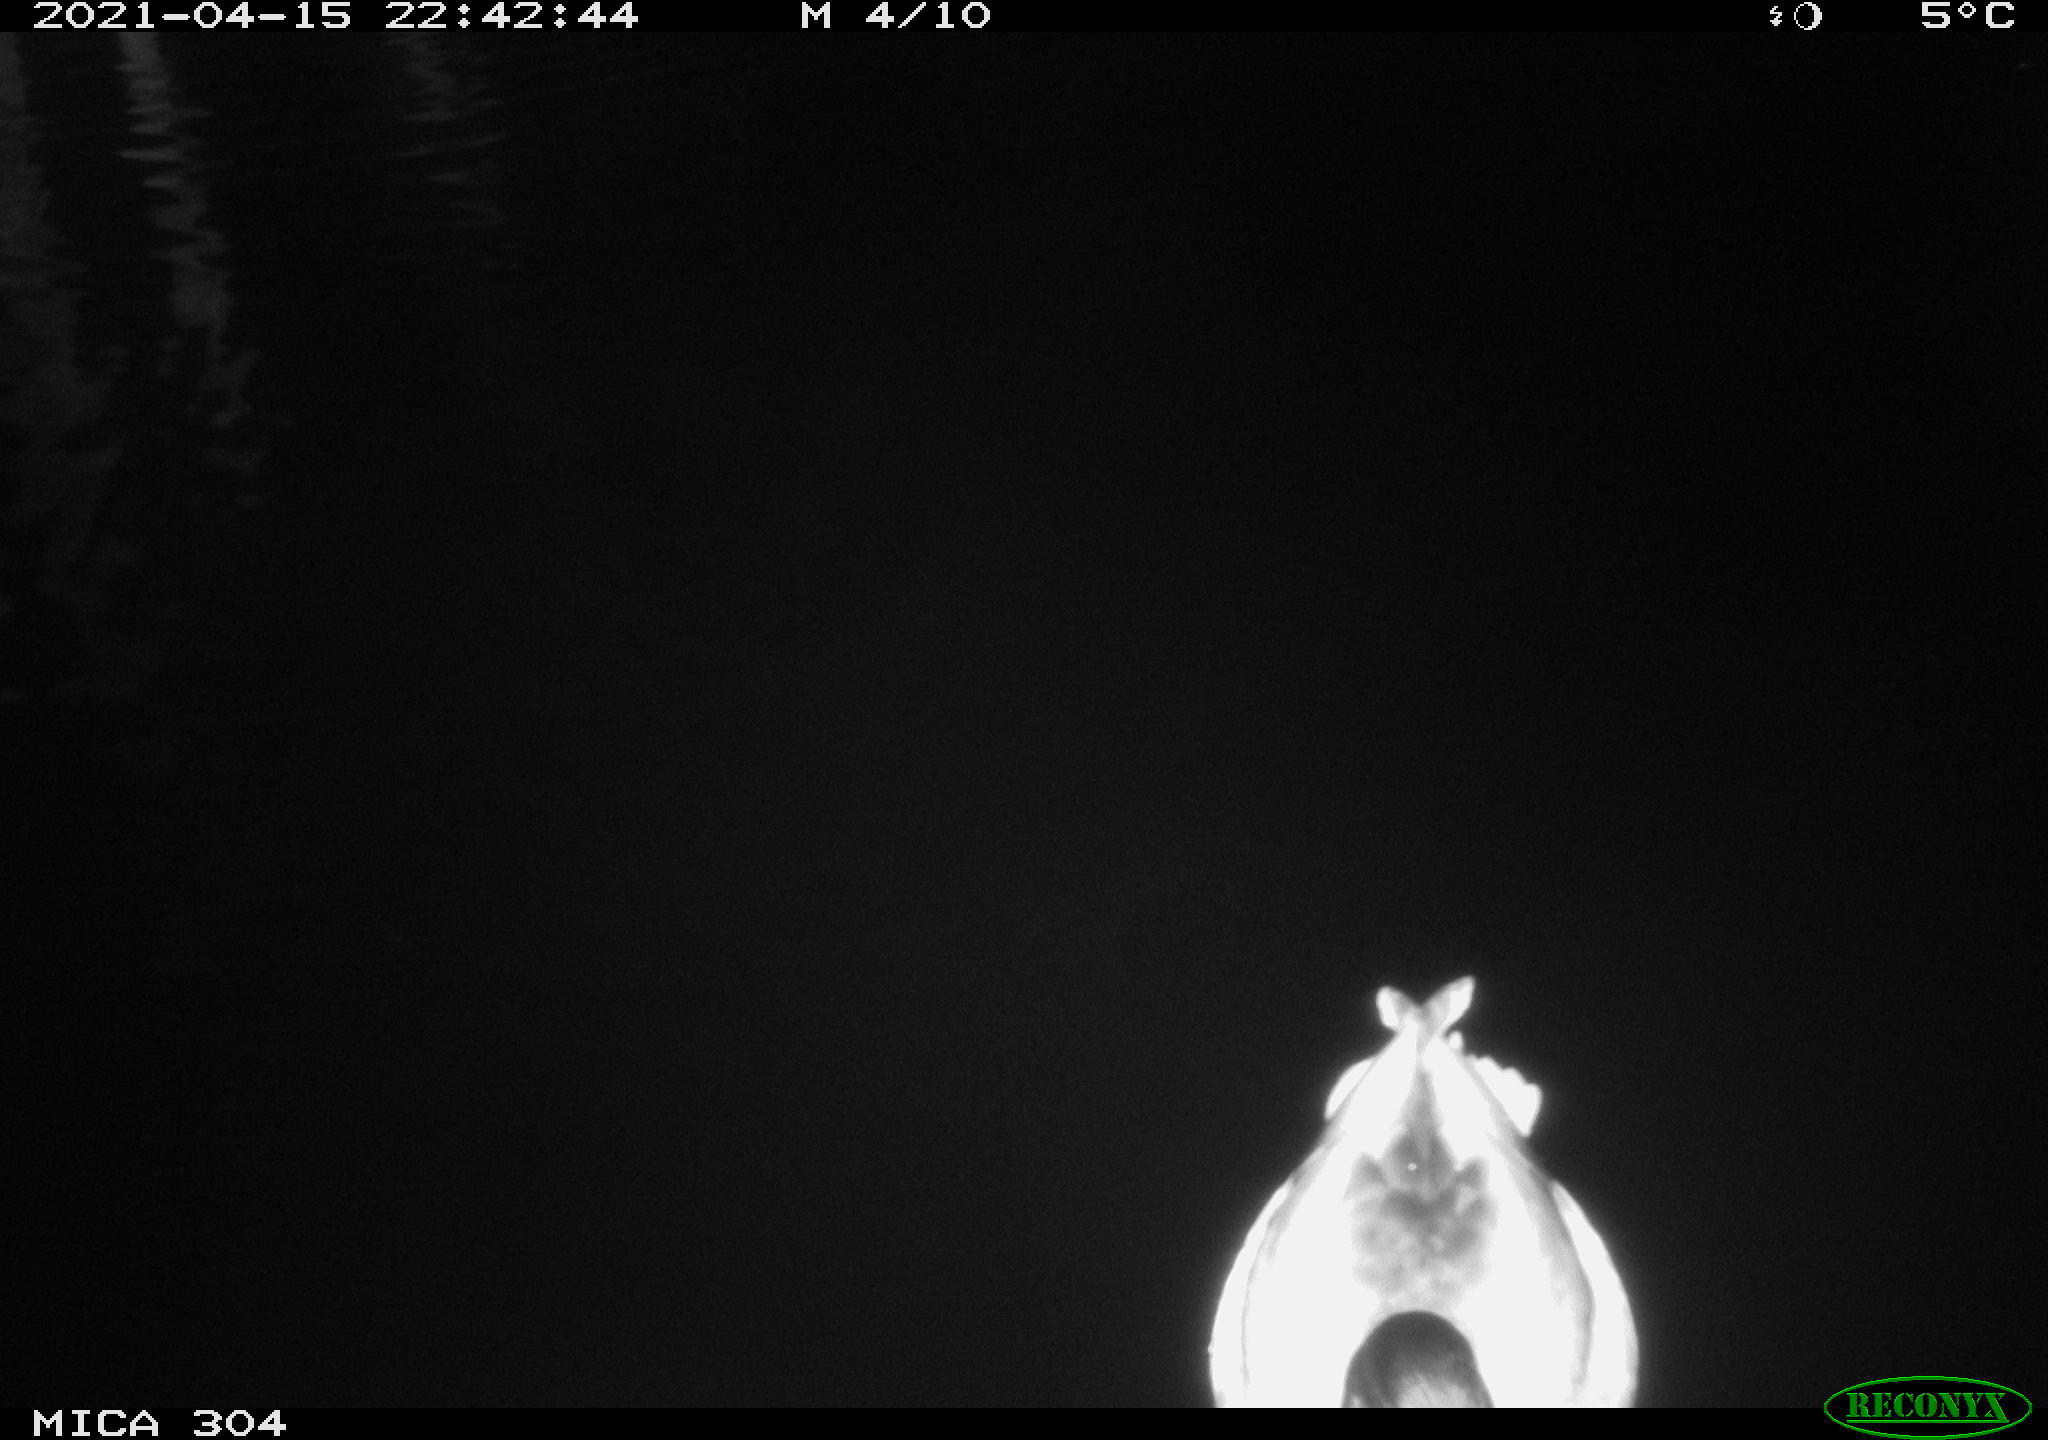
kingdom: Animalia
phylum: Chordata
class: Aves
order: Anseriformes
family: Anatidae
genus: Anas
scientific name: Anas
